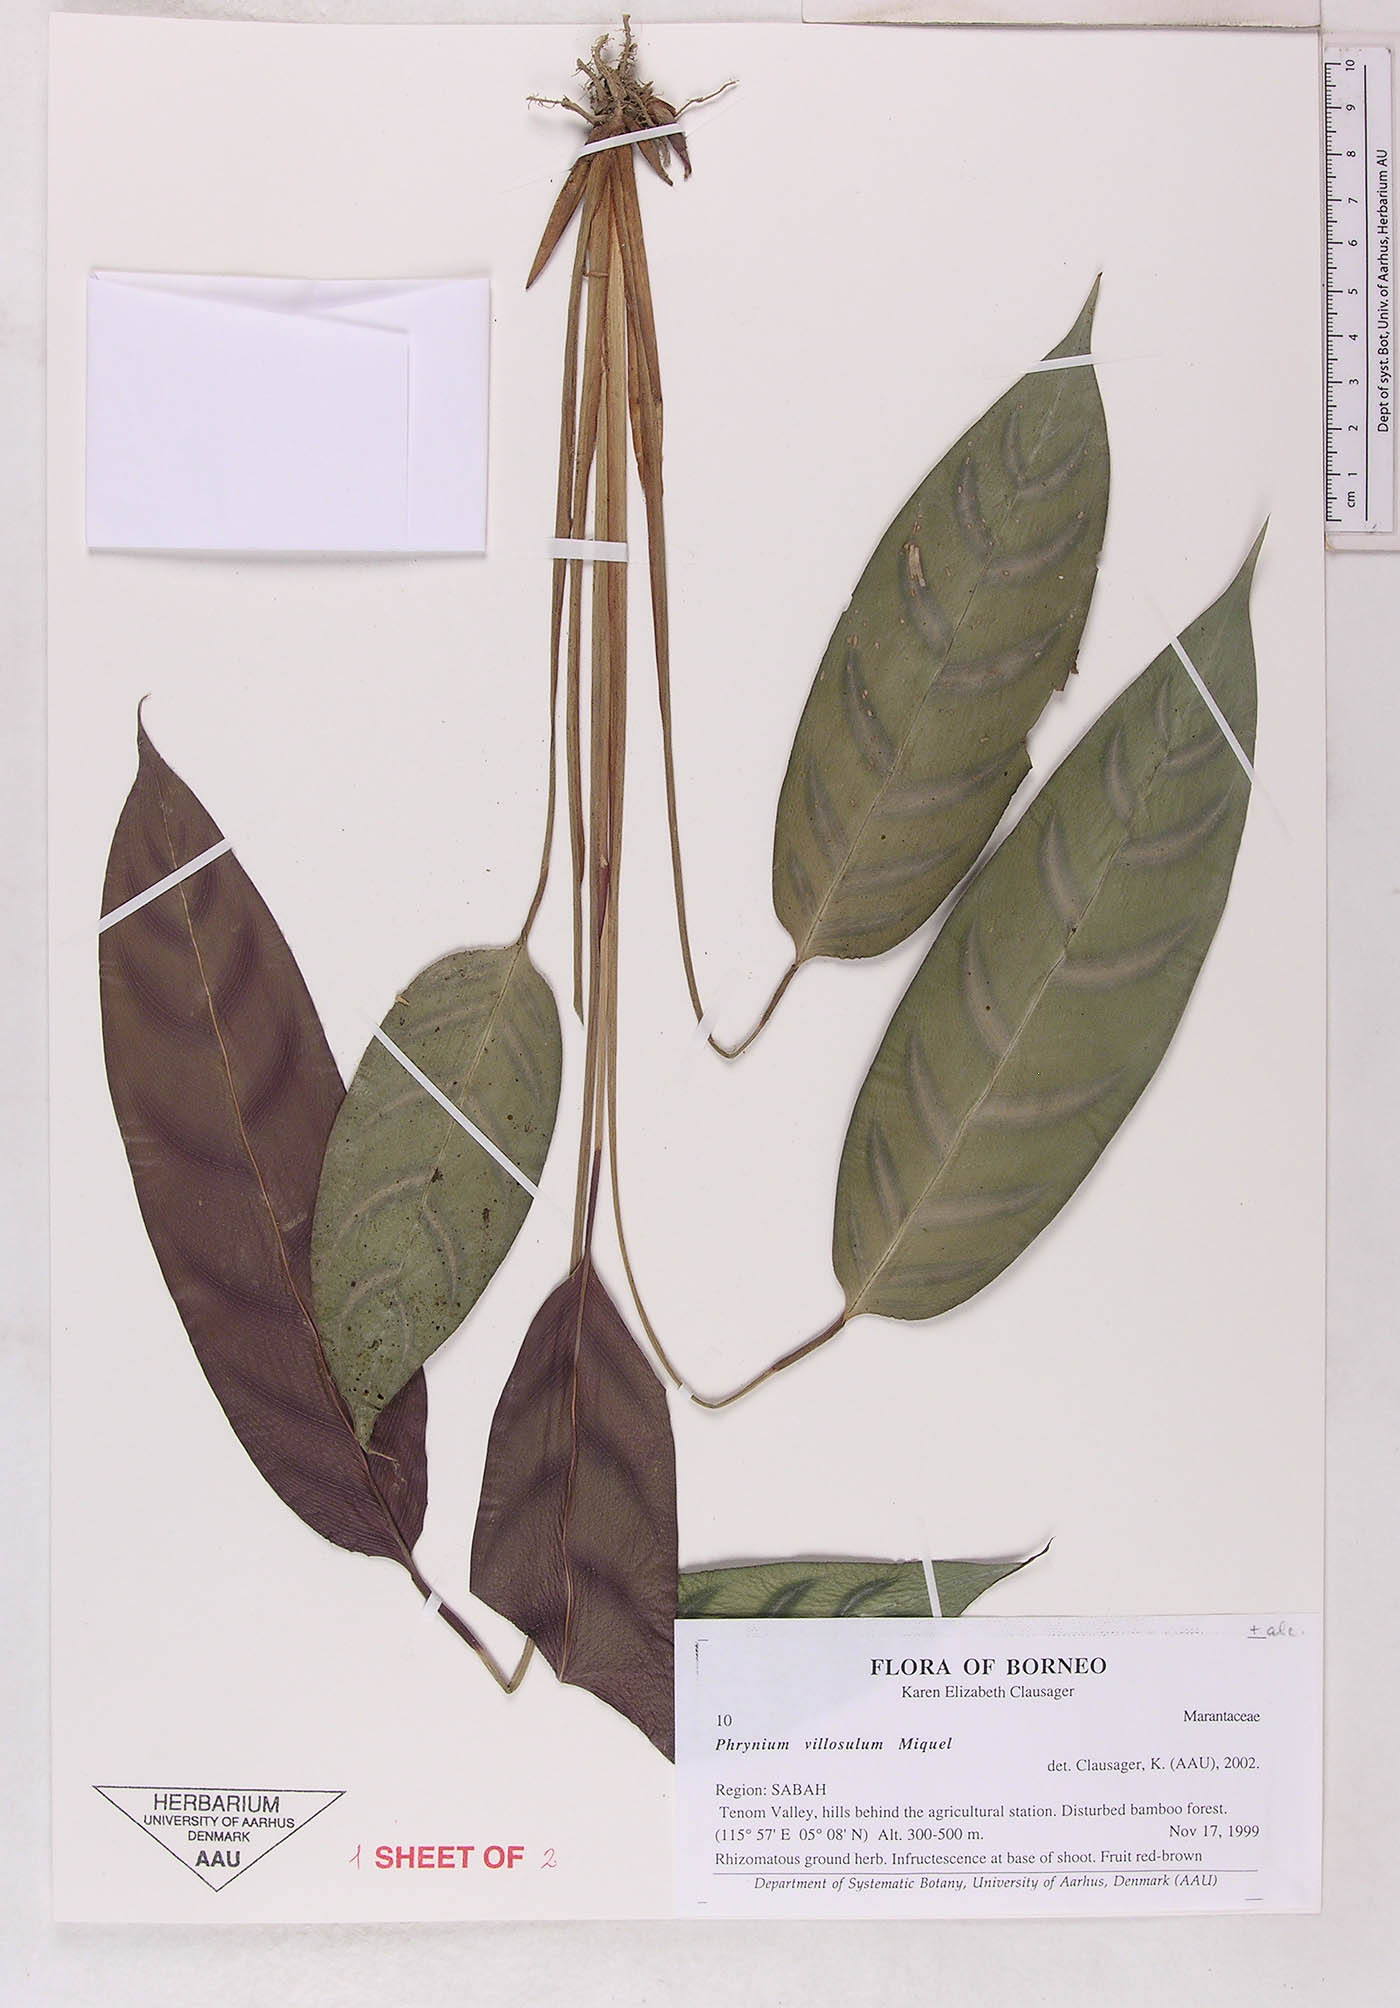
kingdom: Plantae
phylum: Tracheophyta
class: Liliopsida
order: Zingiberales
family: Marantaceae
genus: Phrynium
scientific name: Phrynium villosulum
